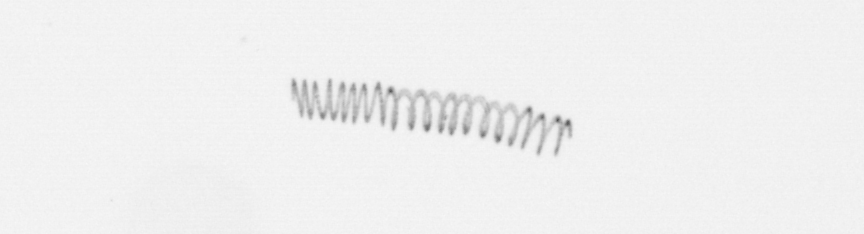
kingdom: Chromista
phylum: Ochrophyta
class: Bacillariophyceae
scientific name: Bacillariophyceae
